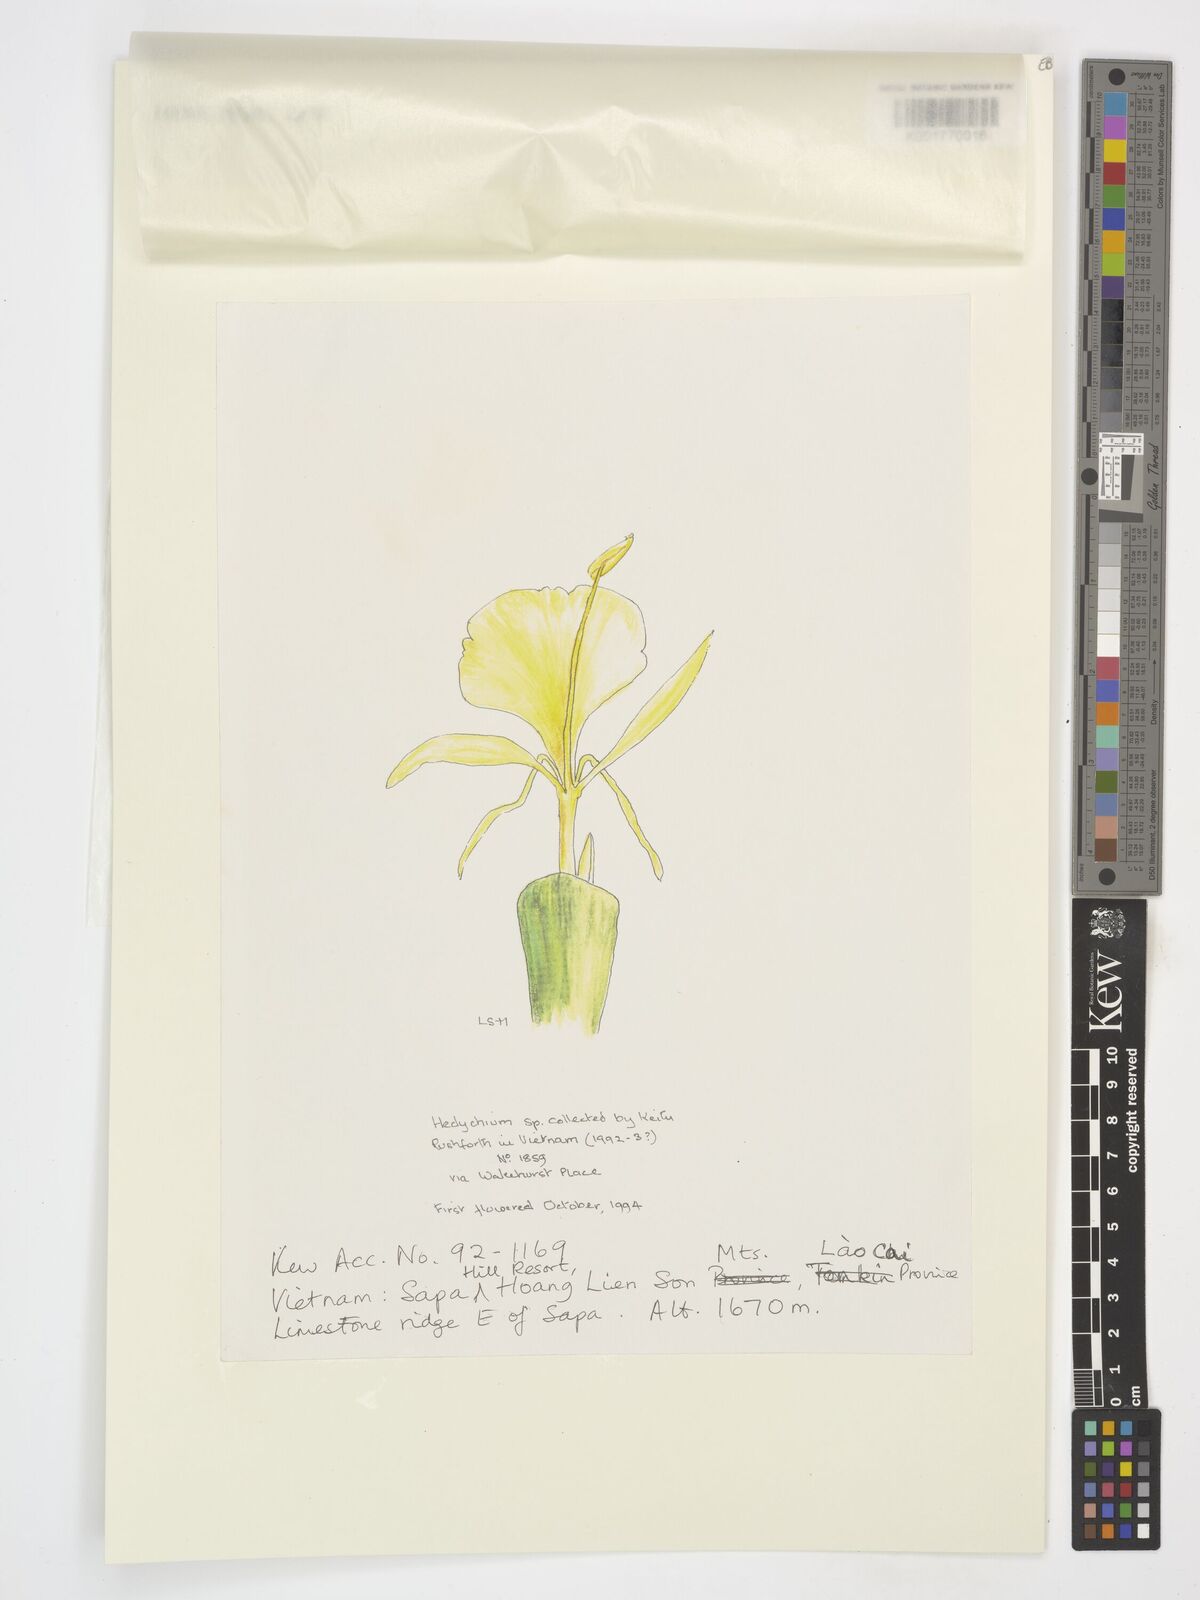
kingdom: Plantae
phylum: Tracheophyta
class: Liliopsida
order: Zingiberales
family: Zingiberaceae
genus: Hedychium
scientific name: Hedychium
